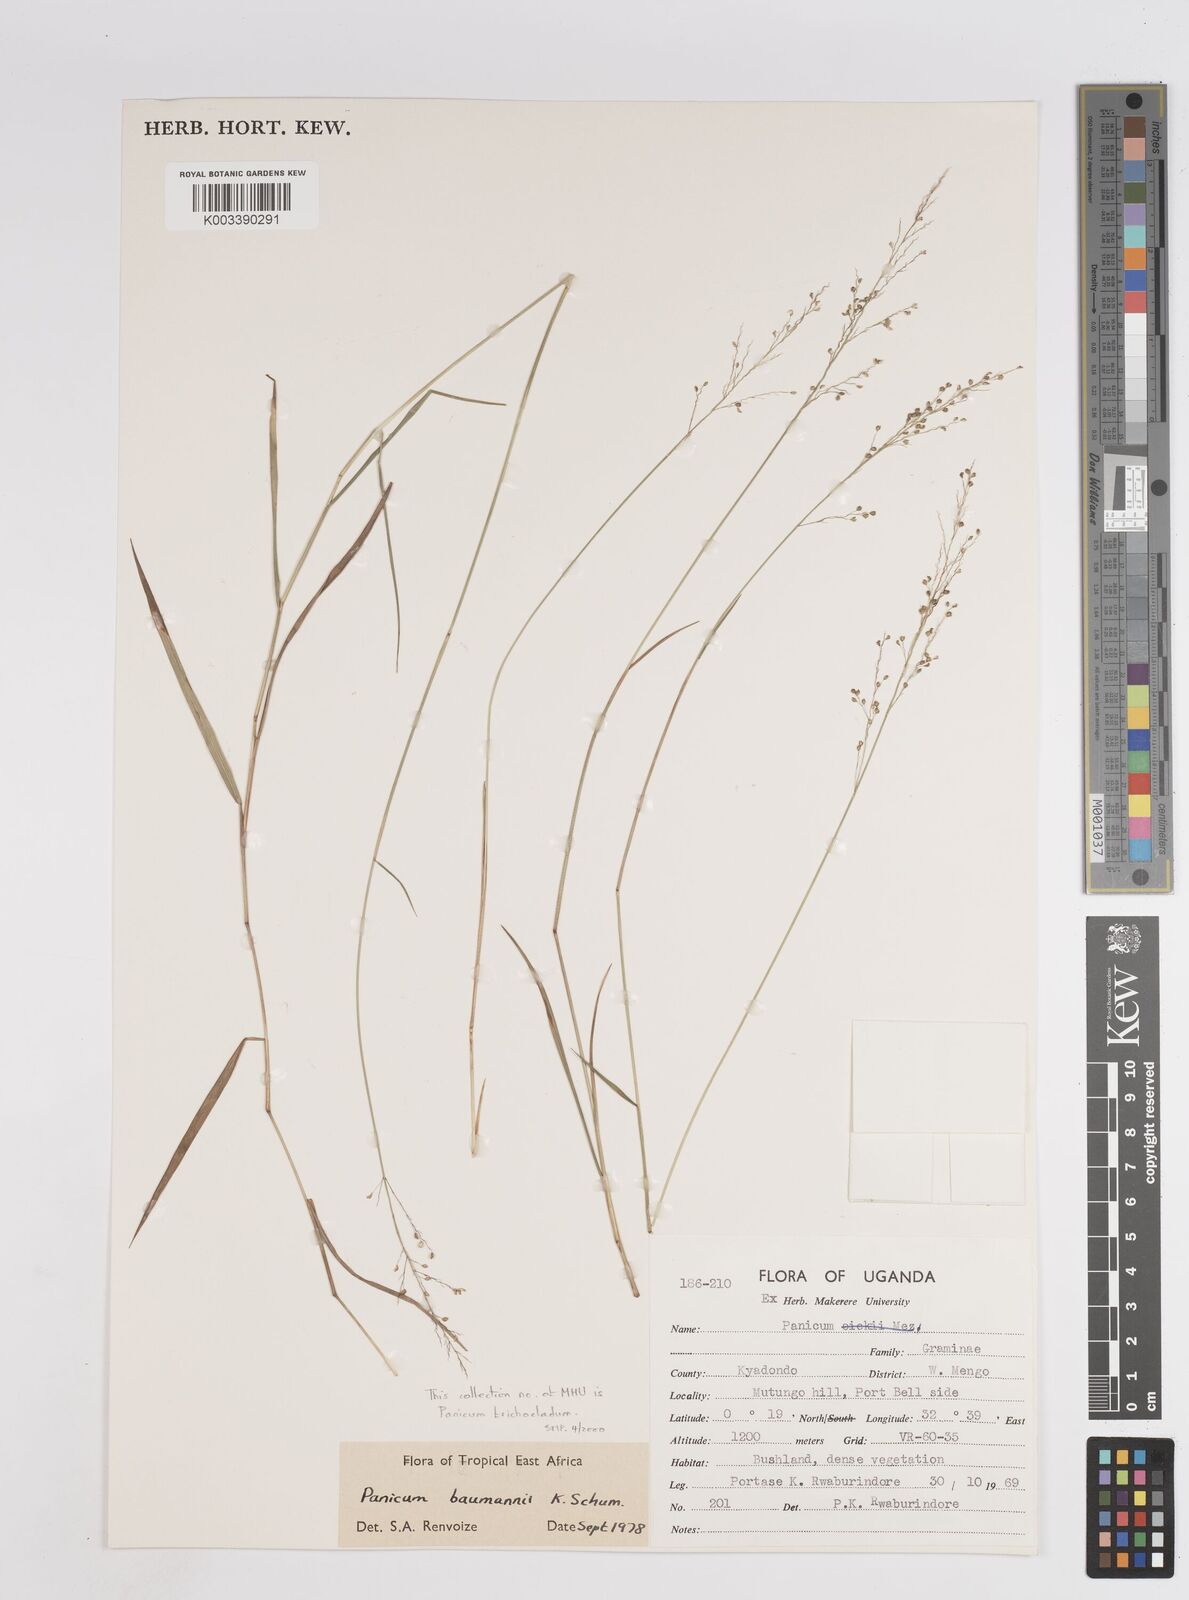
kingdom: Plantae
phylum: Tracheophyta
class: Liliopsida
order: Poales
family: Poaceae
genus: Trichanthecium
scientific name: Trichanthecium nervatum
